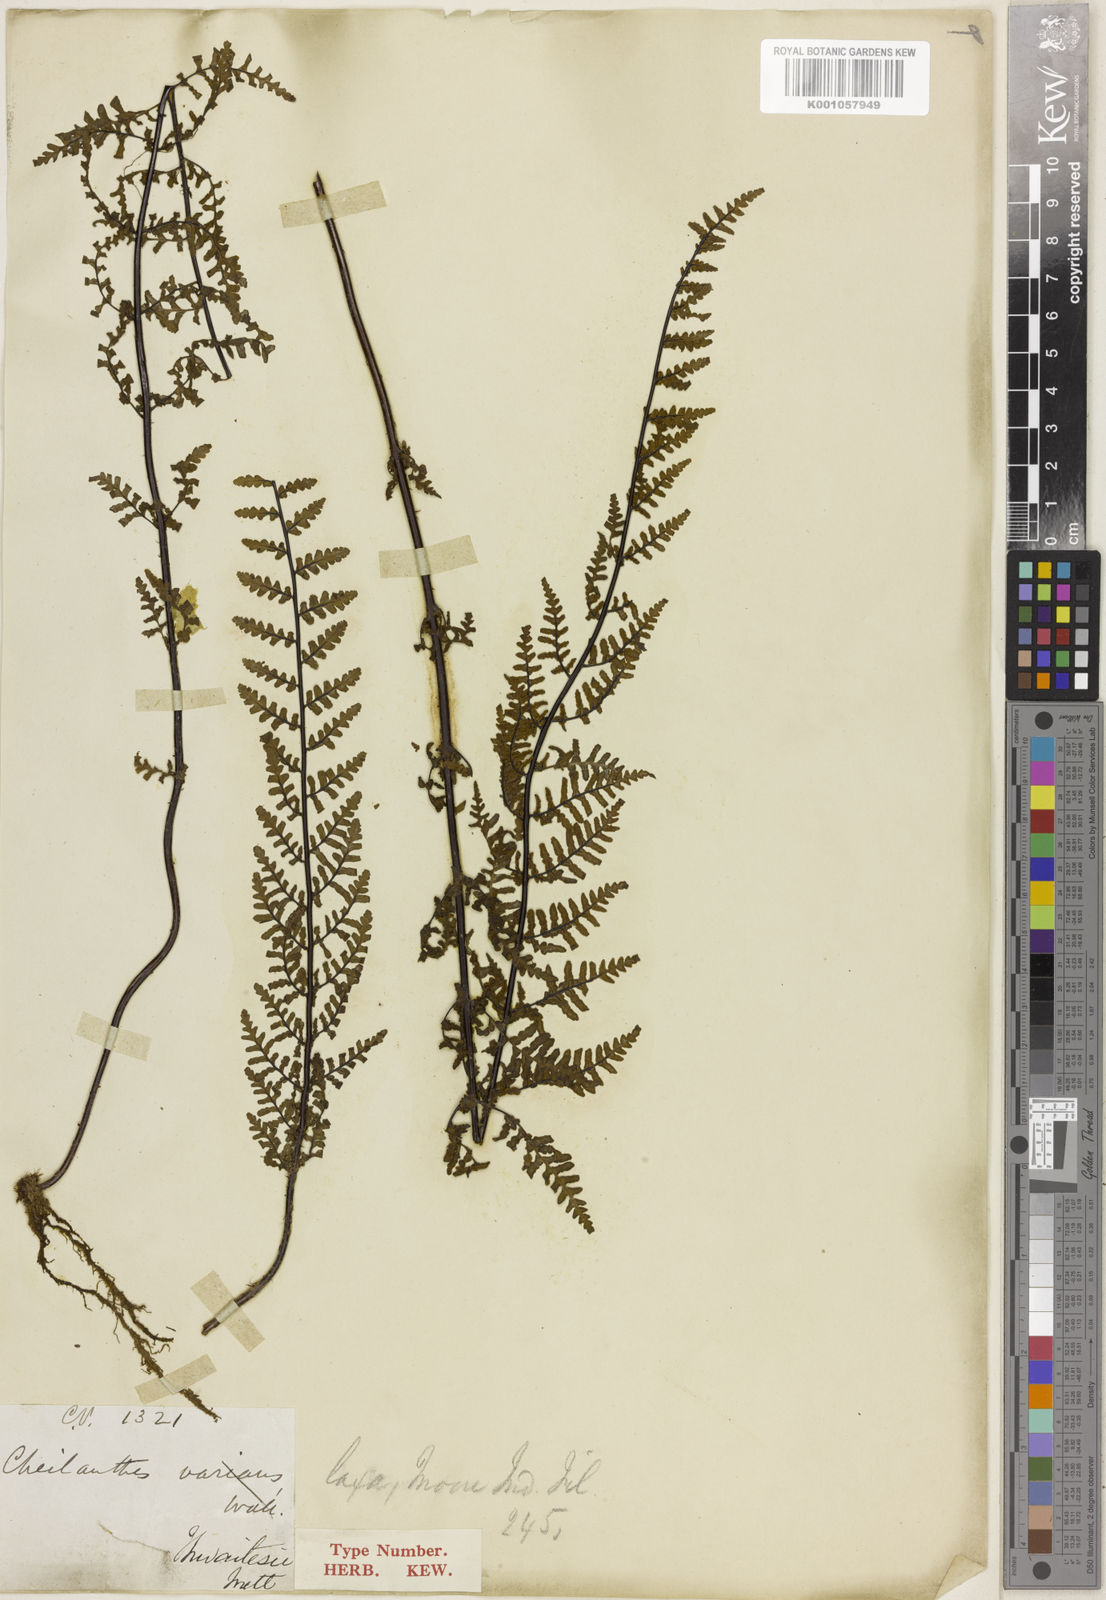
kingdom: Plantae
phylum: Tracheophyta
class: Polypodiopsida
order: Polypodiales
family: Pteridaceae
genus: Oeosporangium
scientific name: Oeosporangium thwaitesii
